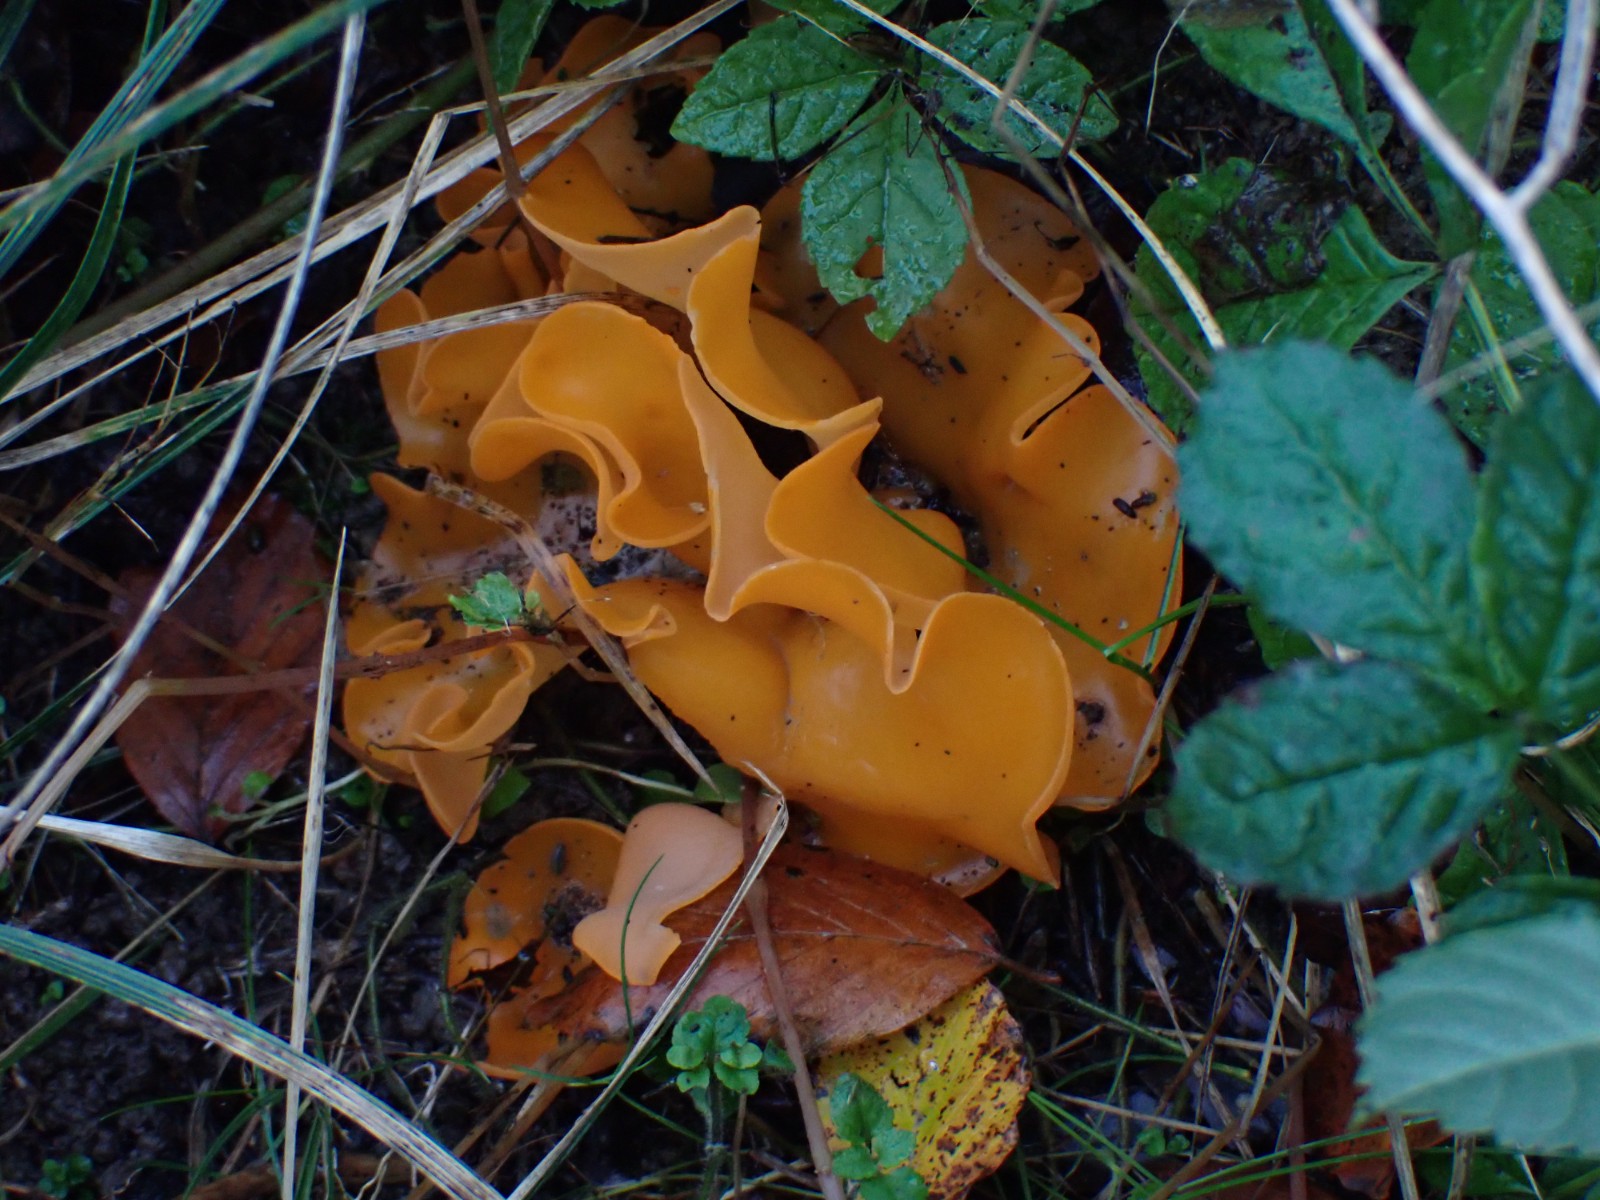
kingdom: Fungi
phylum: Ascomycota
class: Pezizomycetes
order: Pezizales
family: Pyronemataceae
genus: Aleuria
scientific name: Aleuria aurantia
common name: almindelig orangebæger
